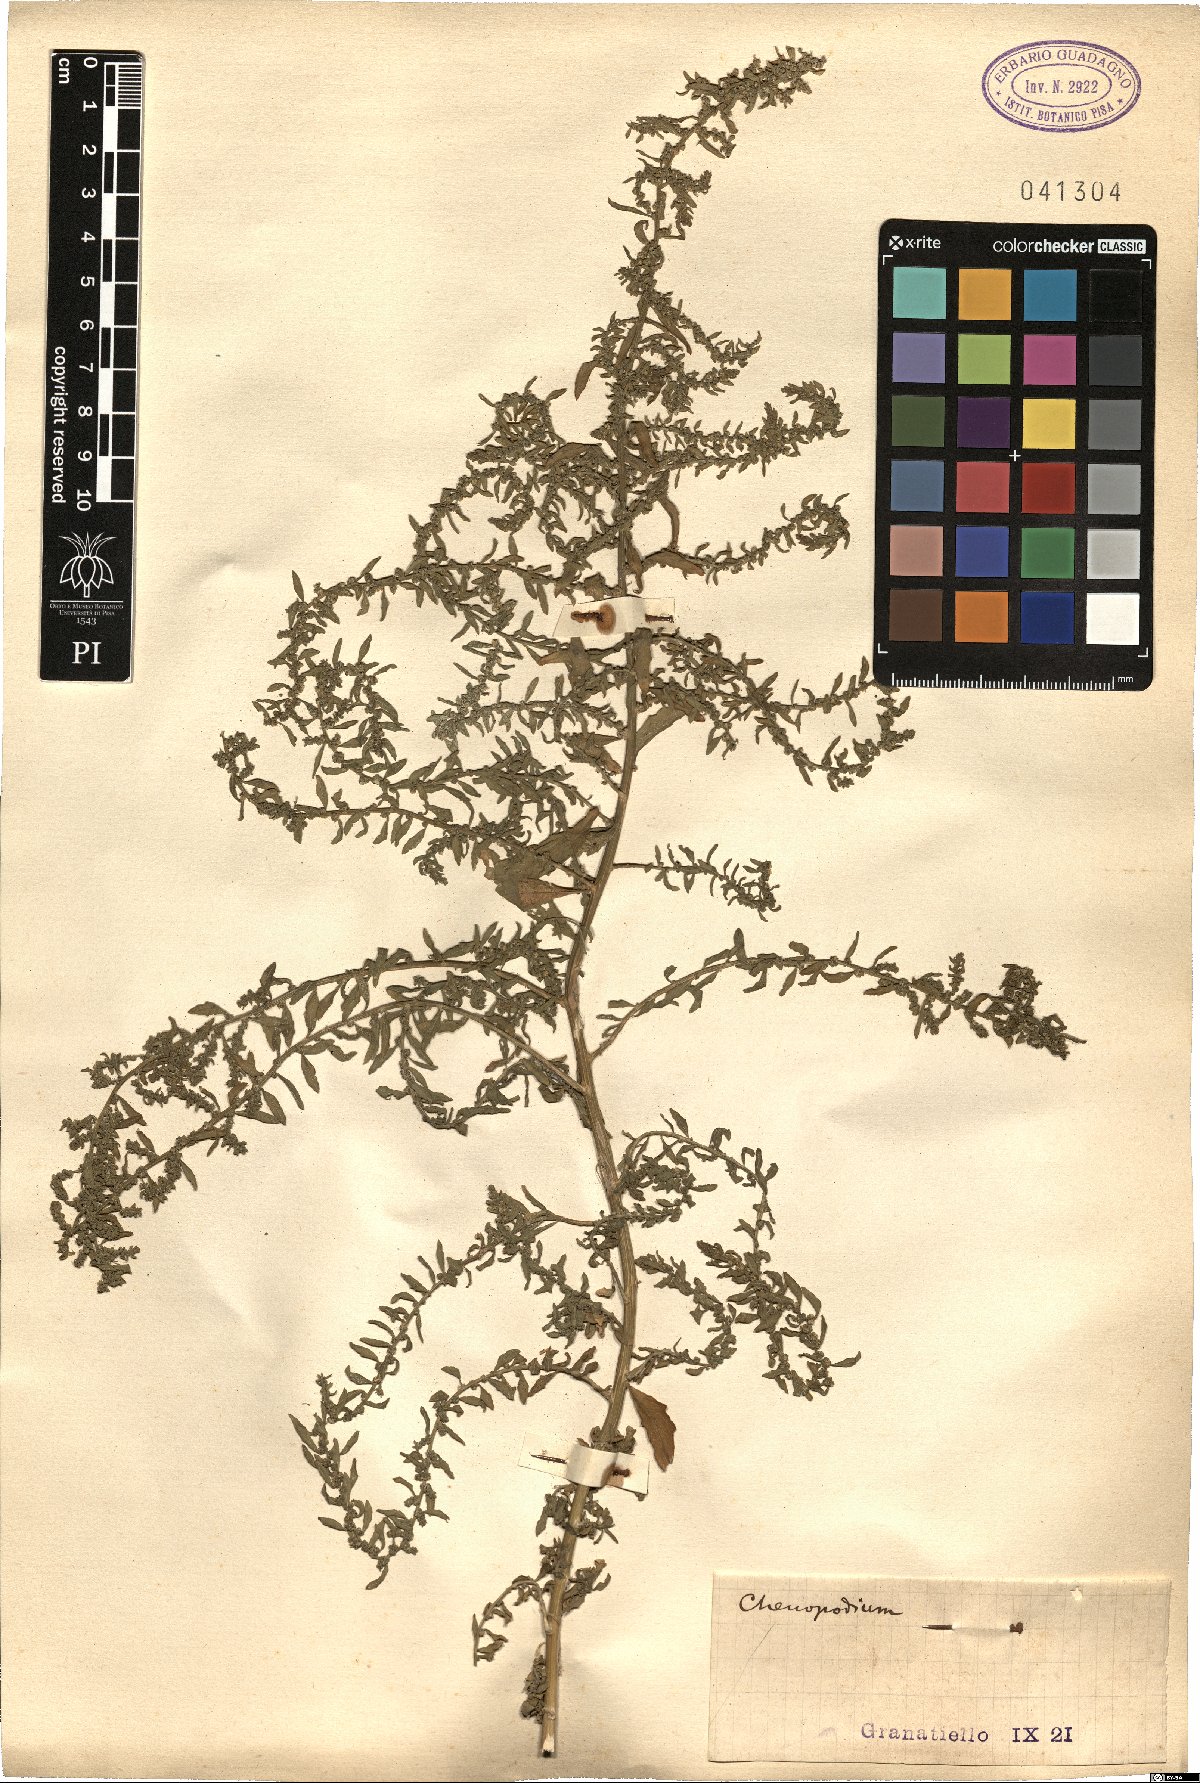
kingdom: Plantae
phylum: Tracheophyta
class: Magnoliopsida
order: Caryophyllales
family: Amaranthaceae
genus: Chenopodium
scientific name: Chenopodium
